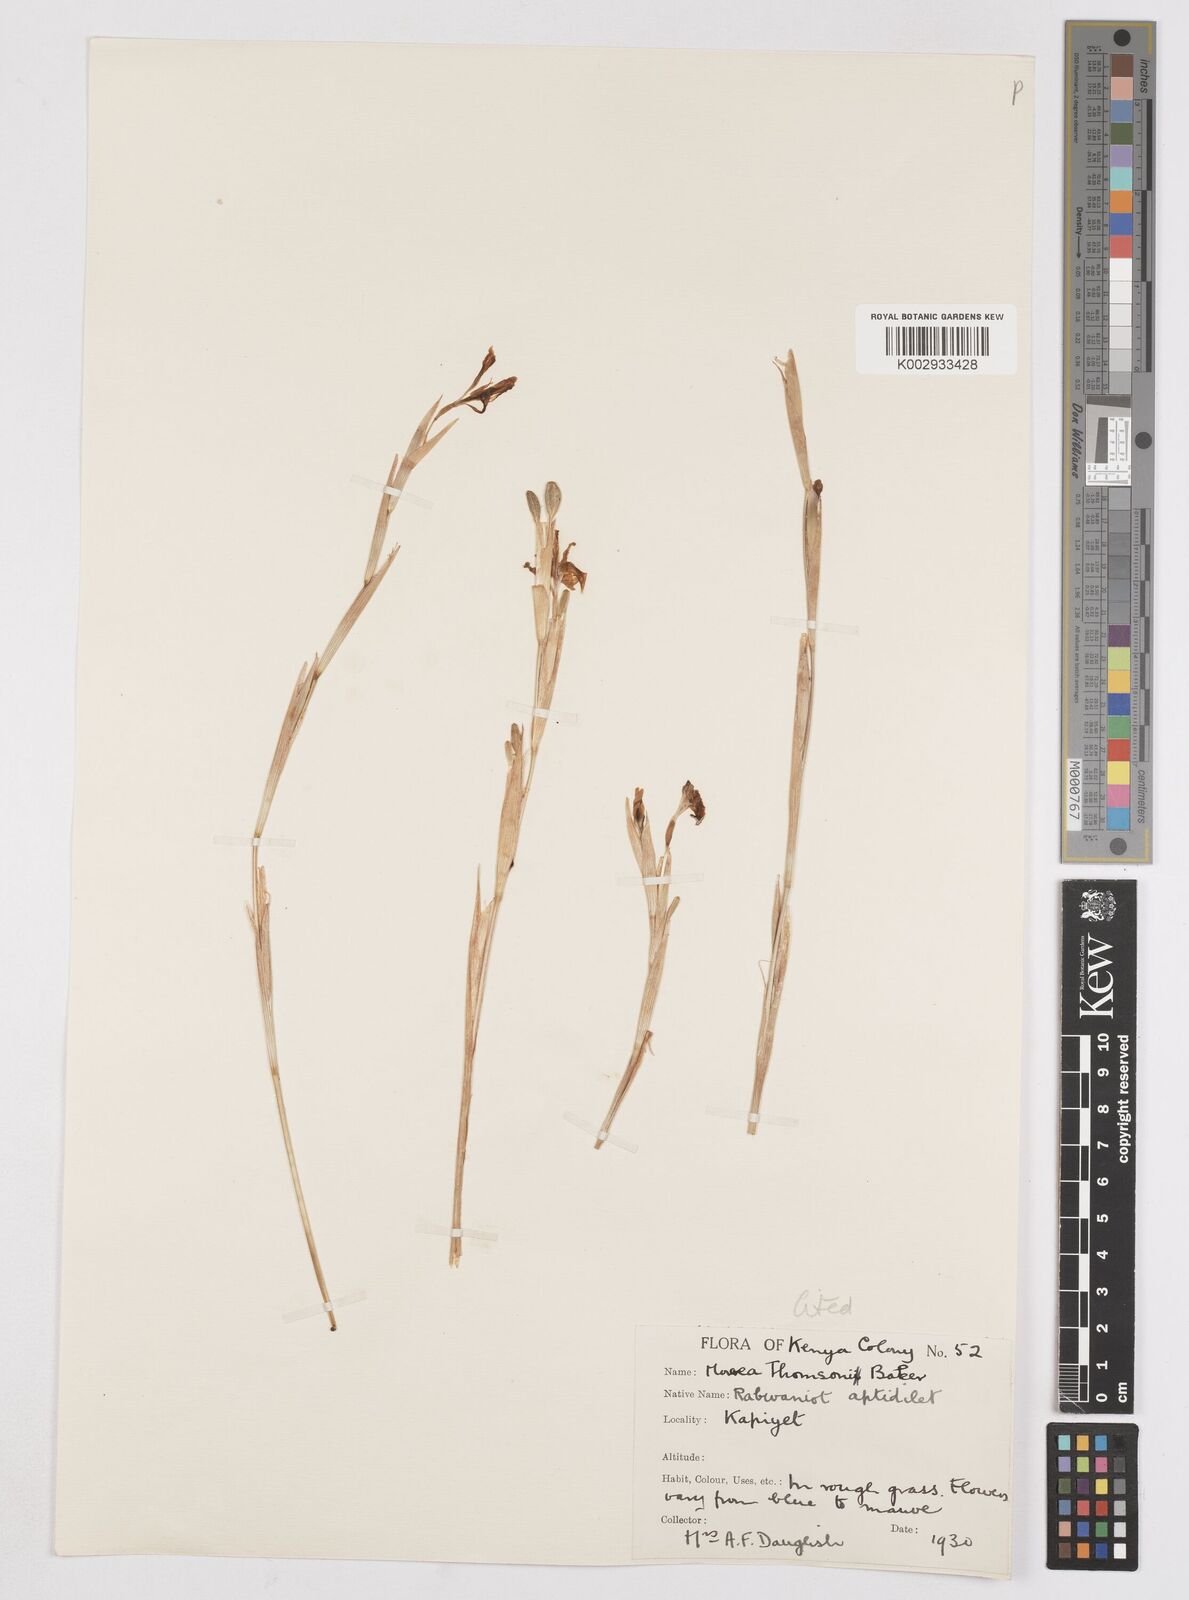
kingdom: Plantae
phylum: Tracheophyta
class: Liliopsida
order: Asparagales
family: Iridaceae
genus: Moraea
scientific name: Moraea thomsonii
